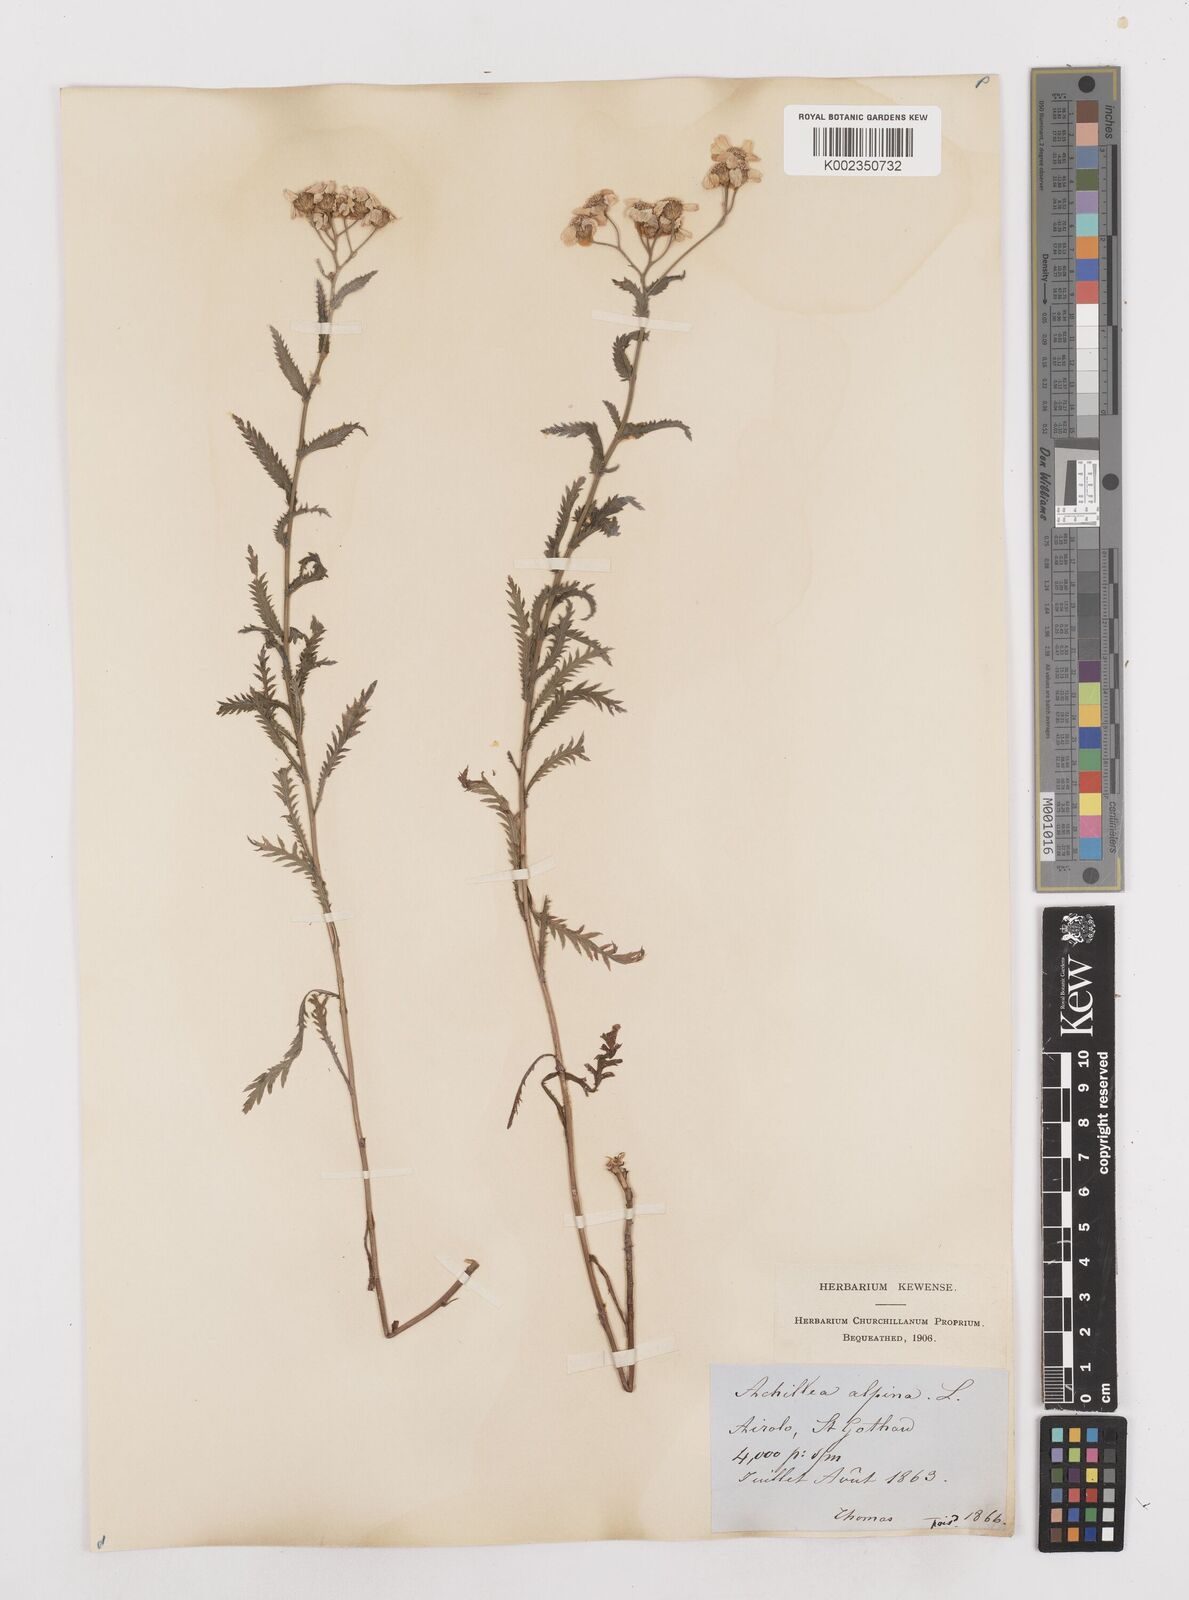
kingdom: Plantae
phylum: Tracheophyta
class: Magnoliopsida
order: Asterales
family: Asteraceae
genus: Achillea
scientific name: Achillea impatiens
